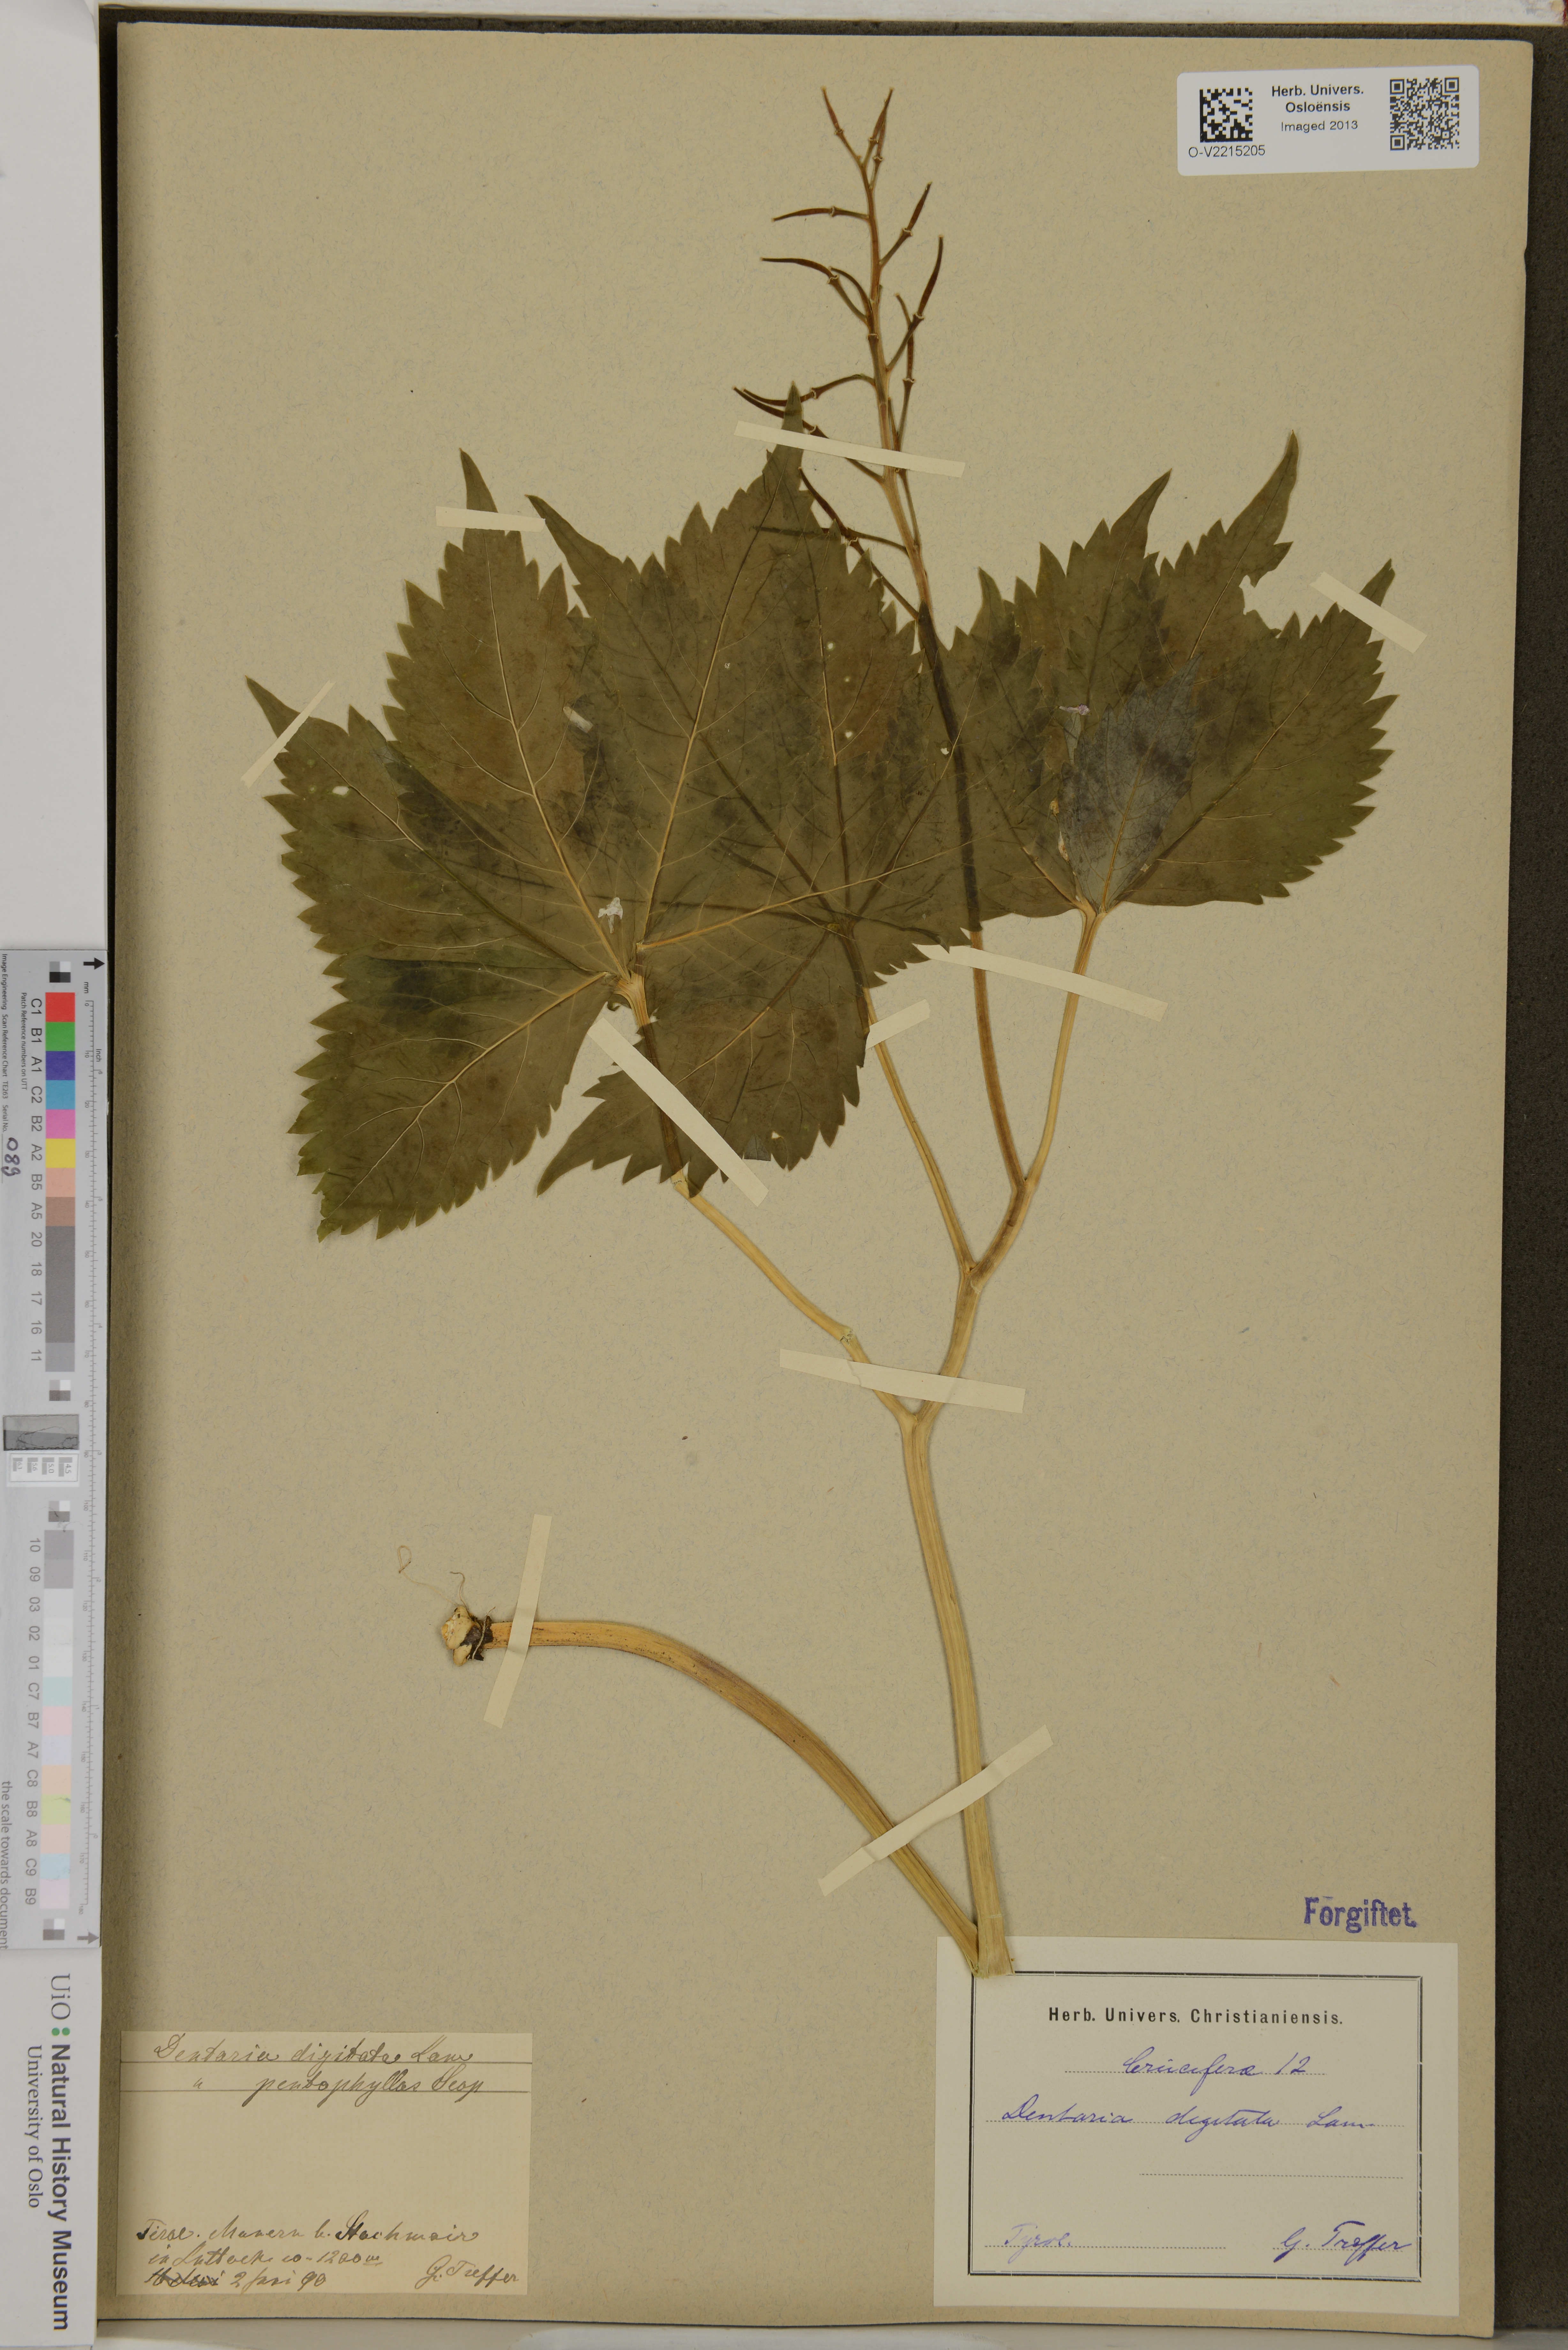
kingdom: Plantae
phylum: Tracheophyta
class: Magnoliopsida
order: Brassicales
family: Brassicaceae
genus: Cardamine
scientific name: Cardamine pentaphyllos
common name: Five-leaflet bitter-cress
